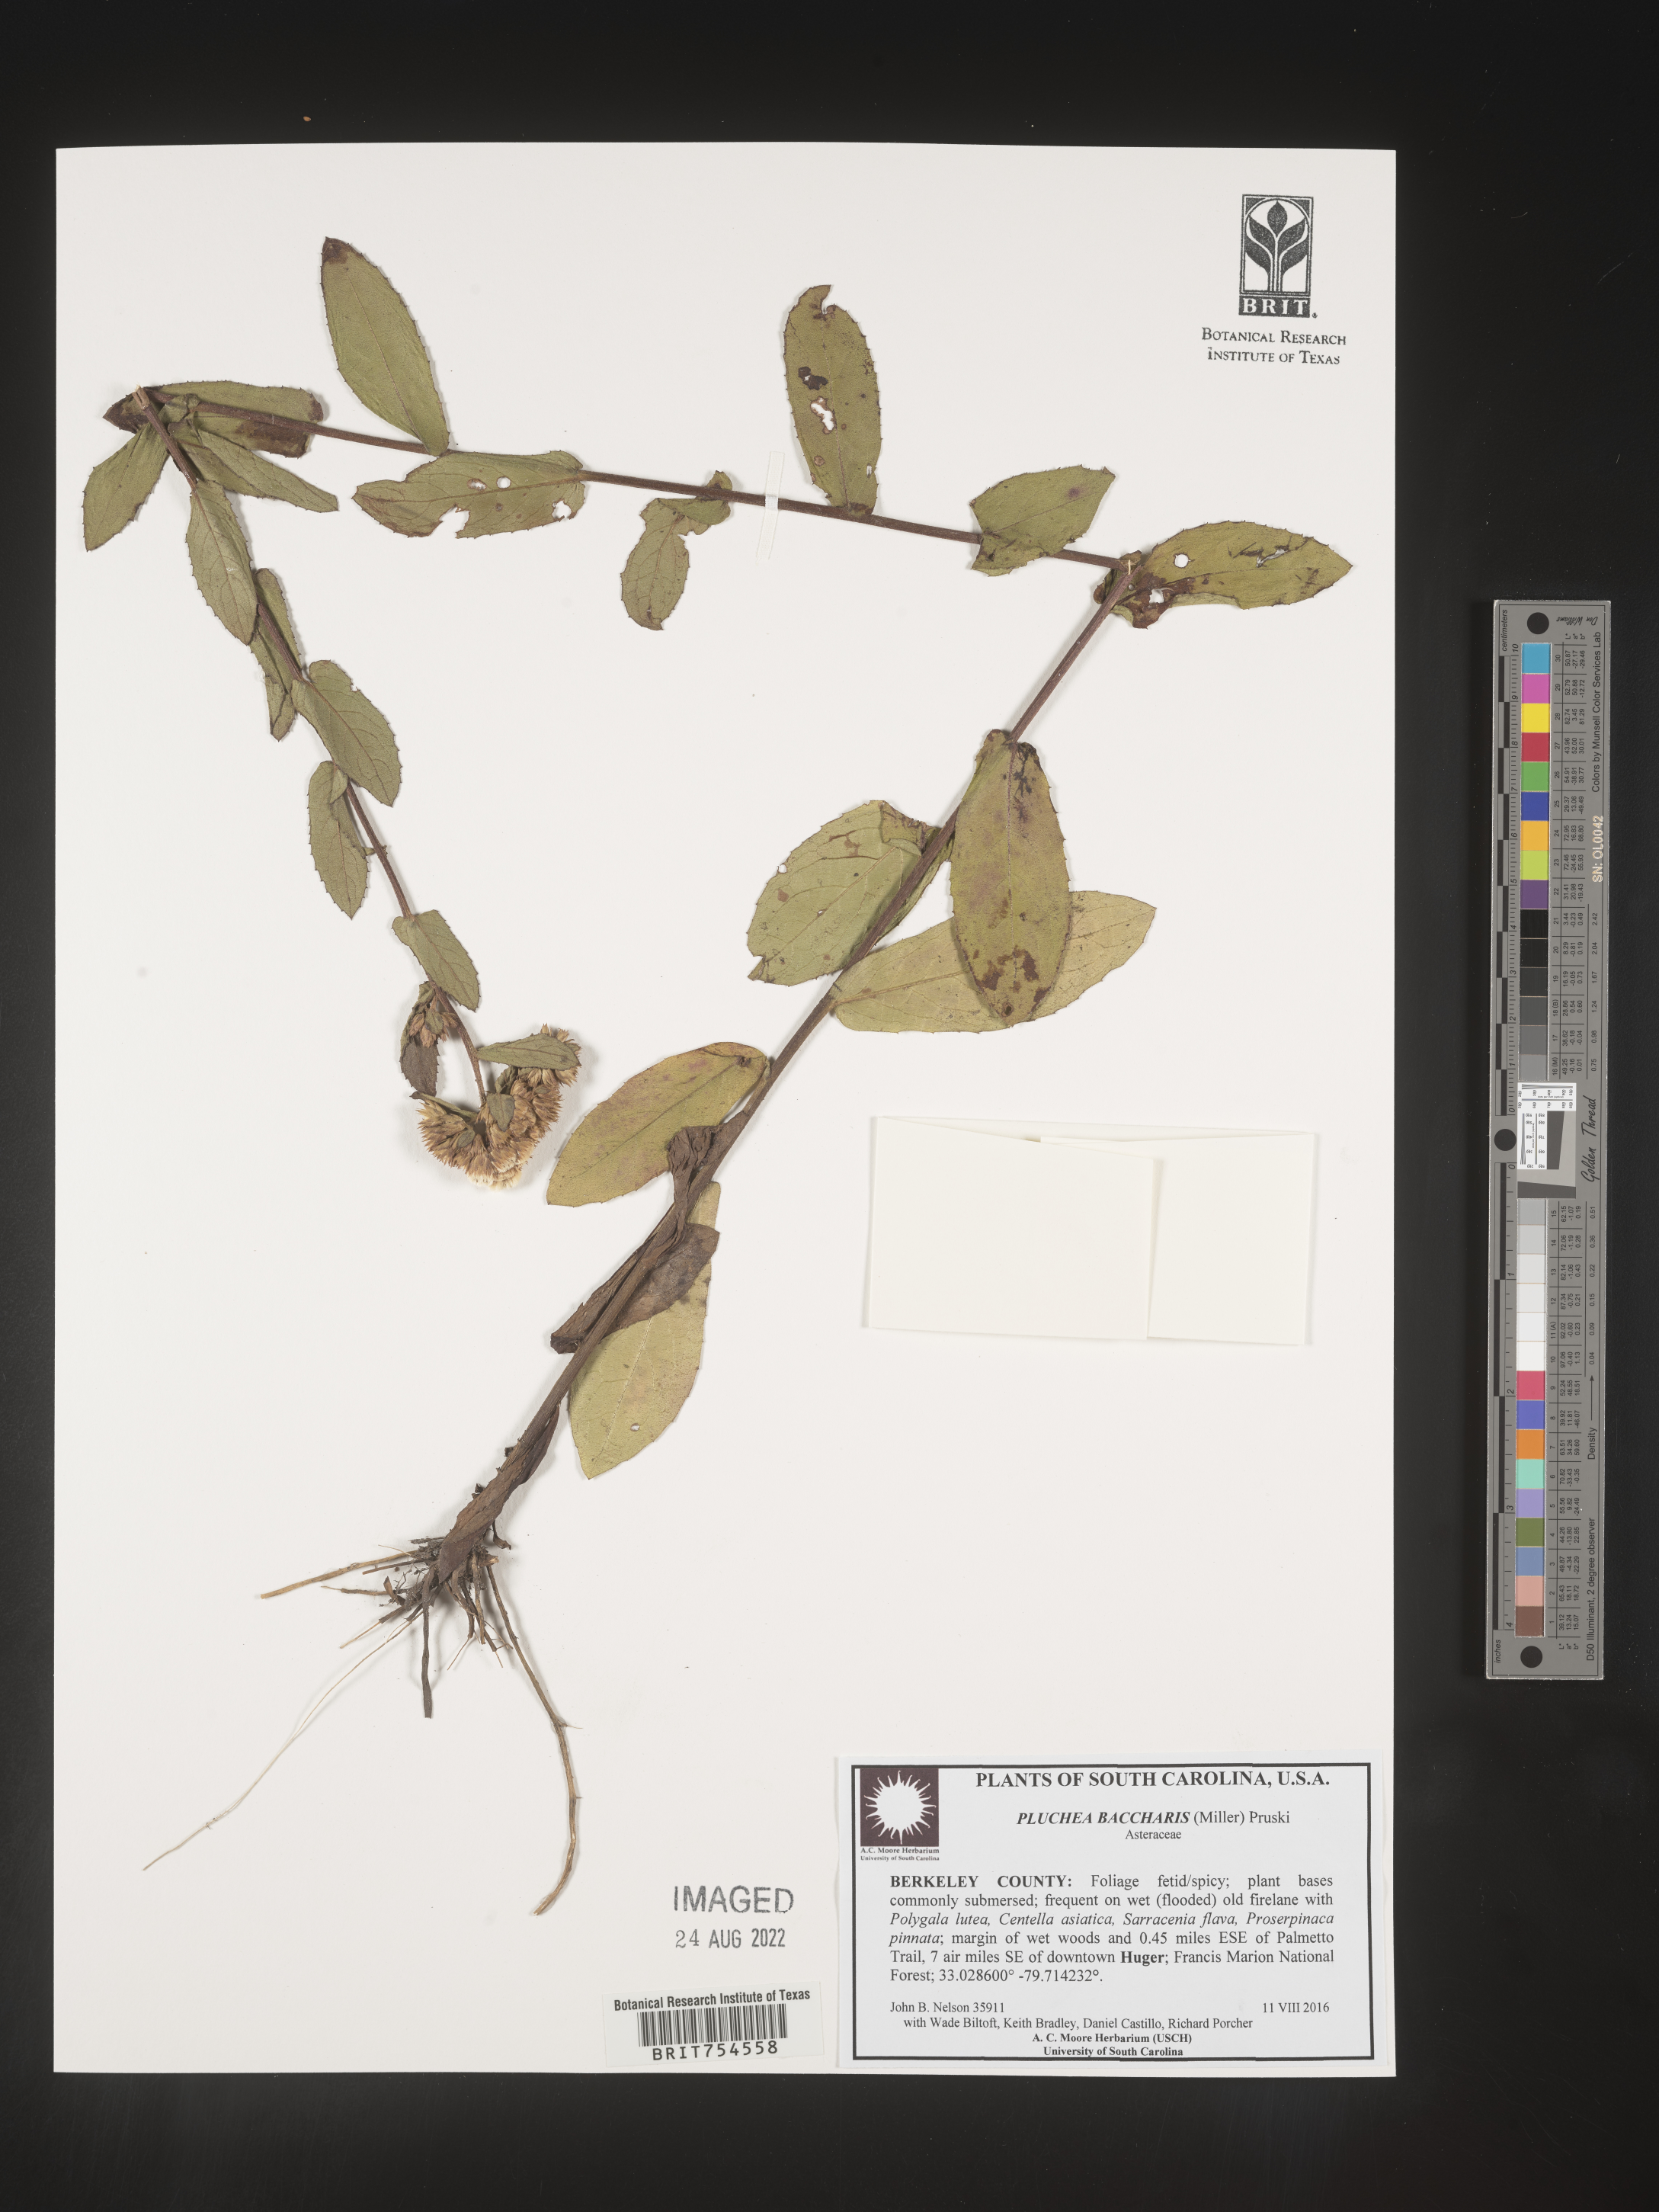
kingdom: Plantae
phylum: Tracheophyta
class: Magnoliopsida
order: Asterales
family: Asteraceae
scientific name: Asteraceae
